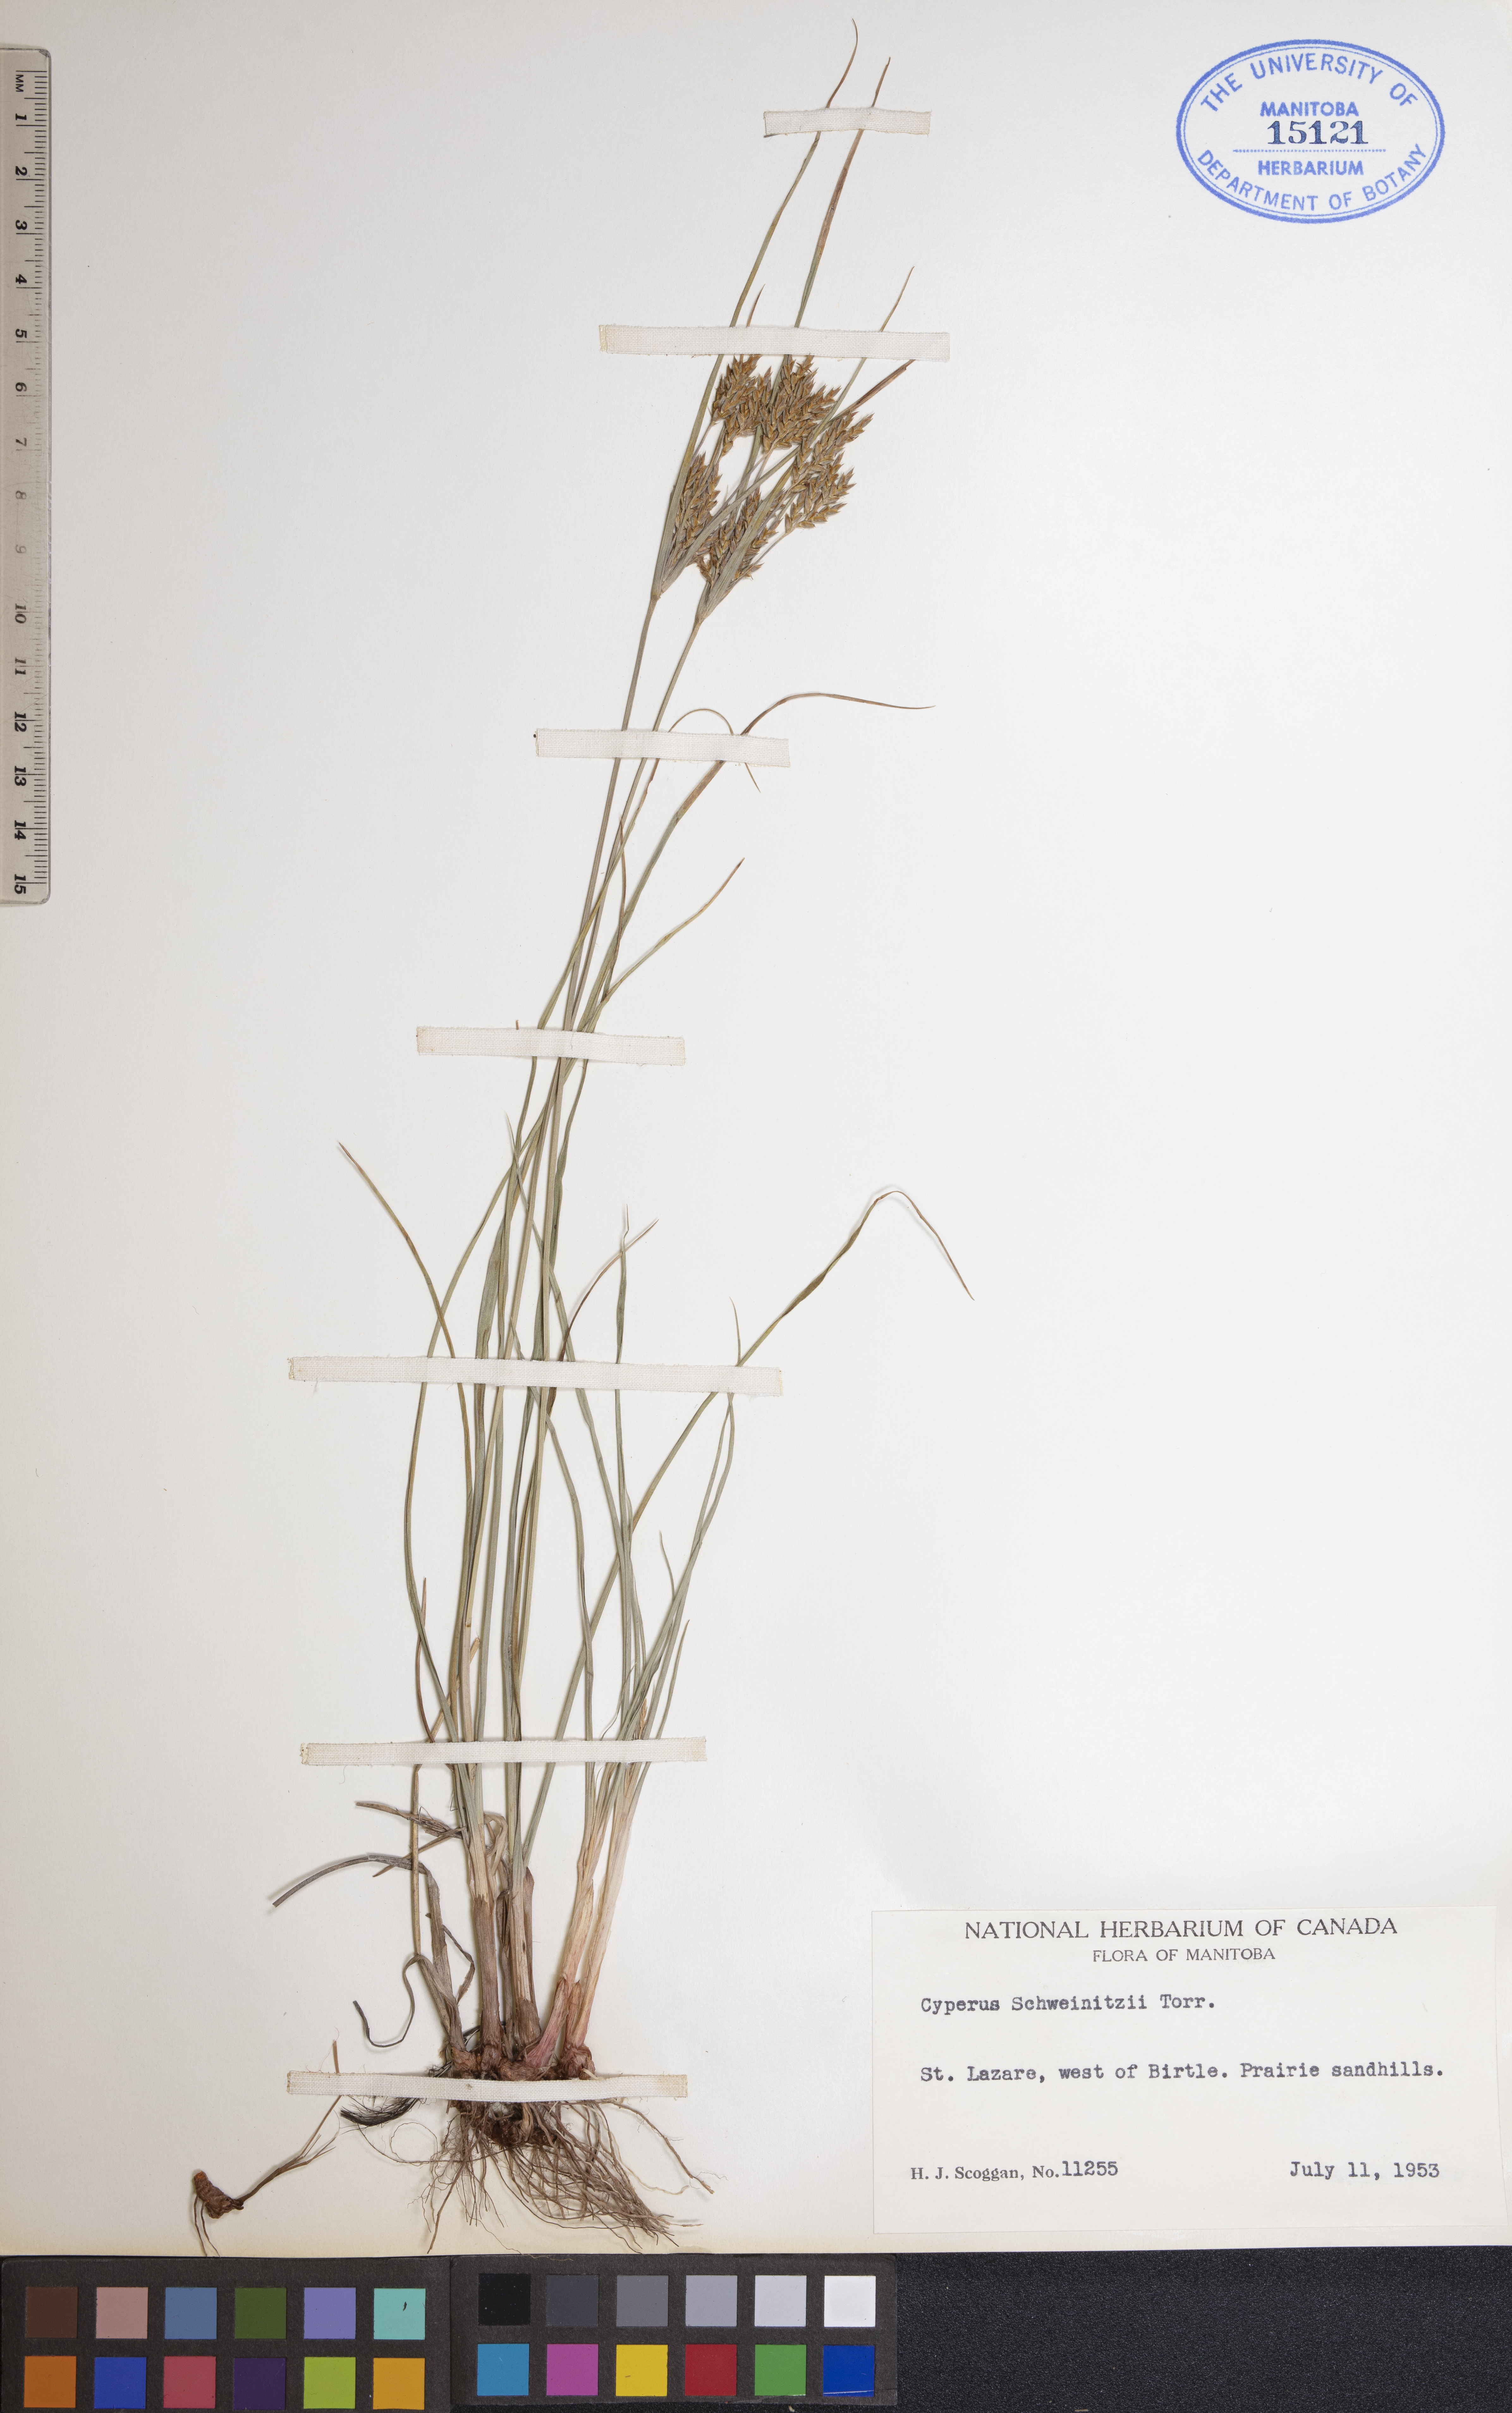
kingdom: Plantae
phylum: Tracheophyta
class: Liliopsida
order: Poales
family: Cyperaceae
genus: Cyperus
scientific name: Cyperus schweinitzii
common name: Schweinitz's cyperus
